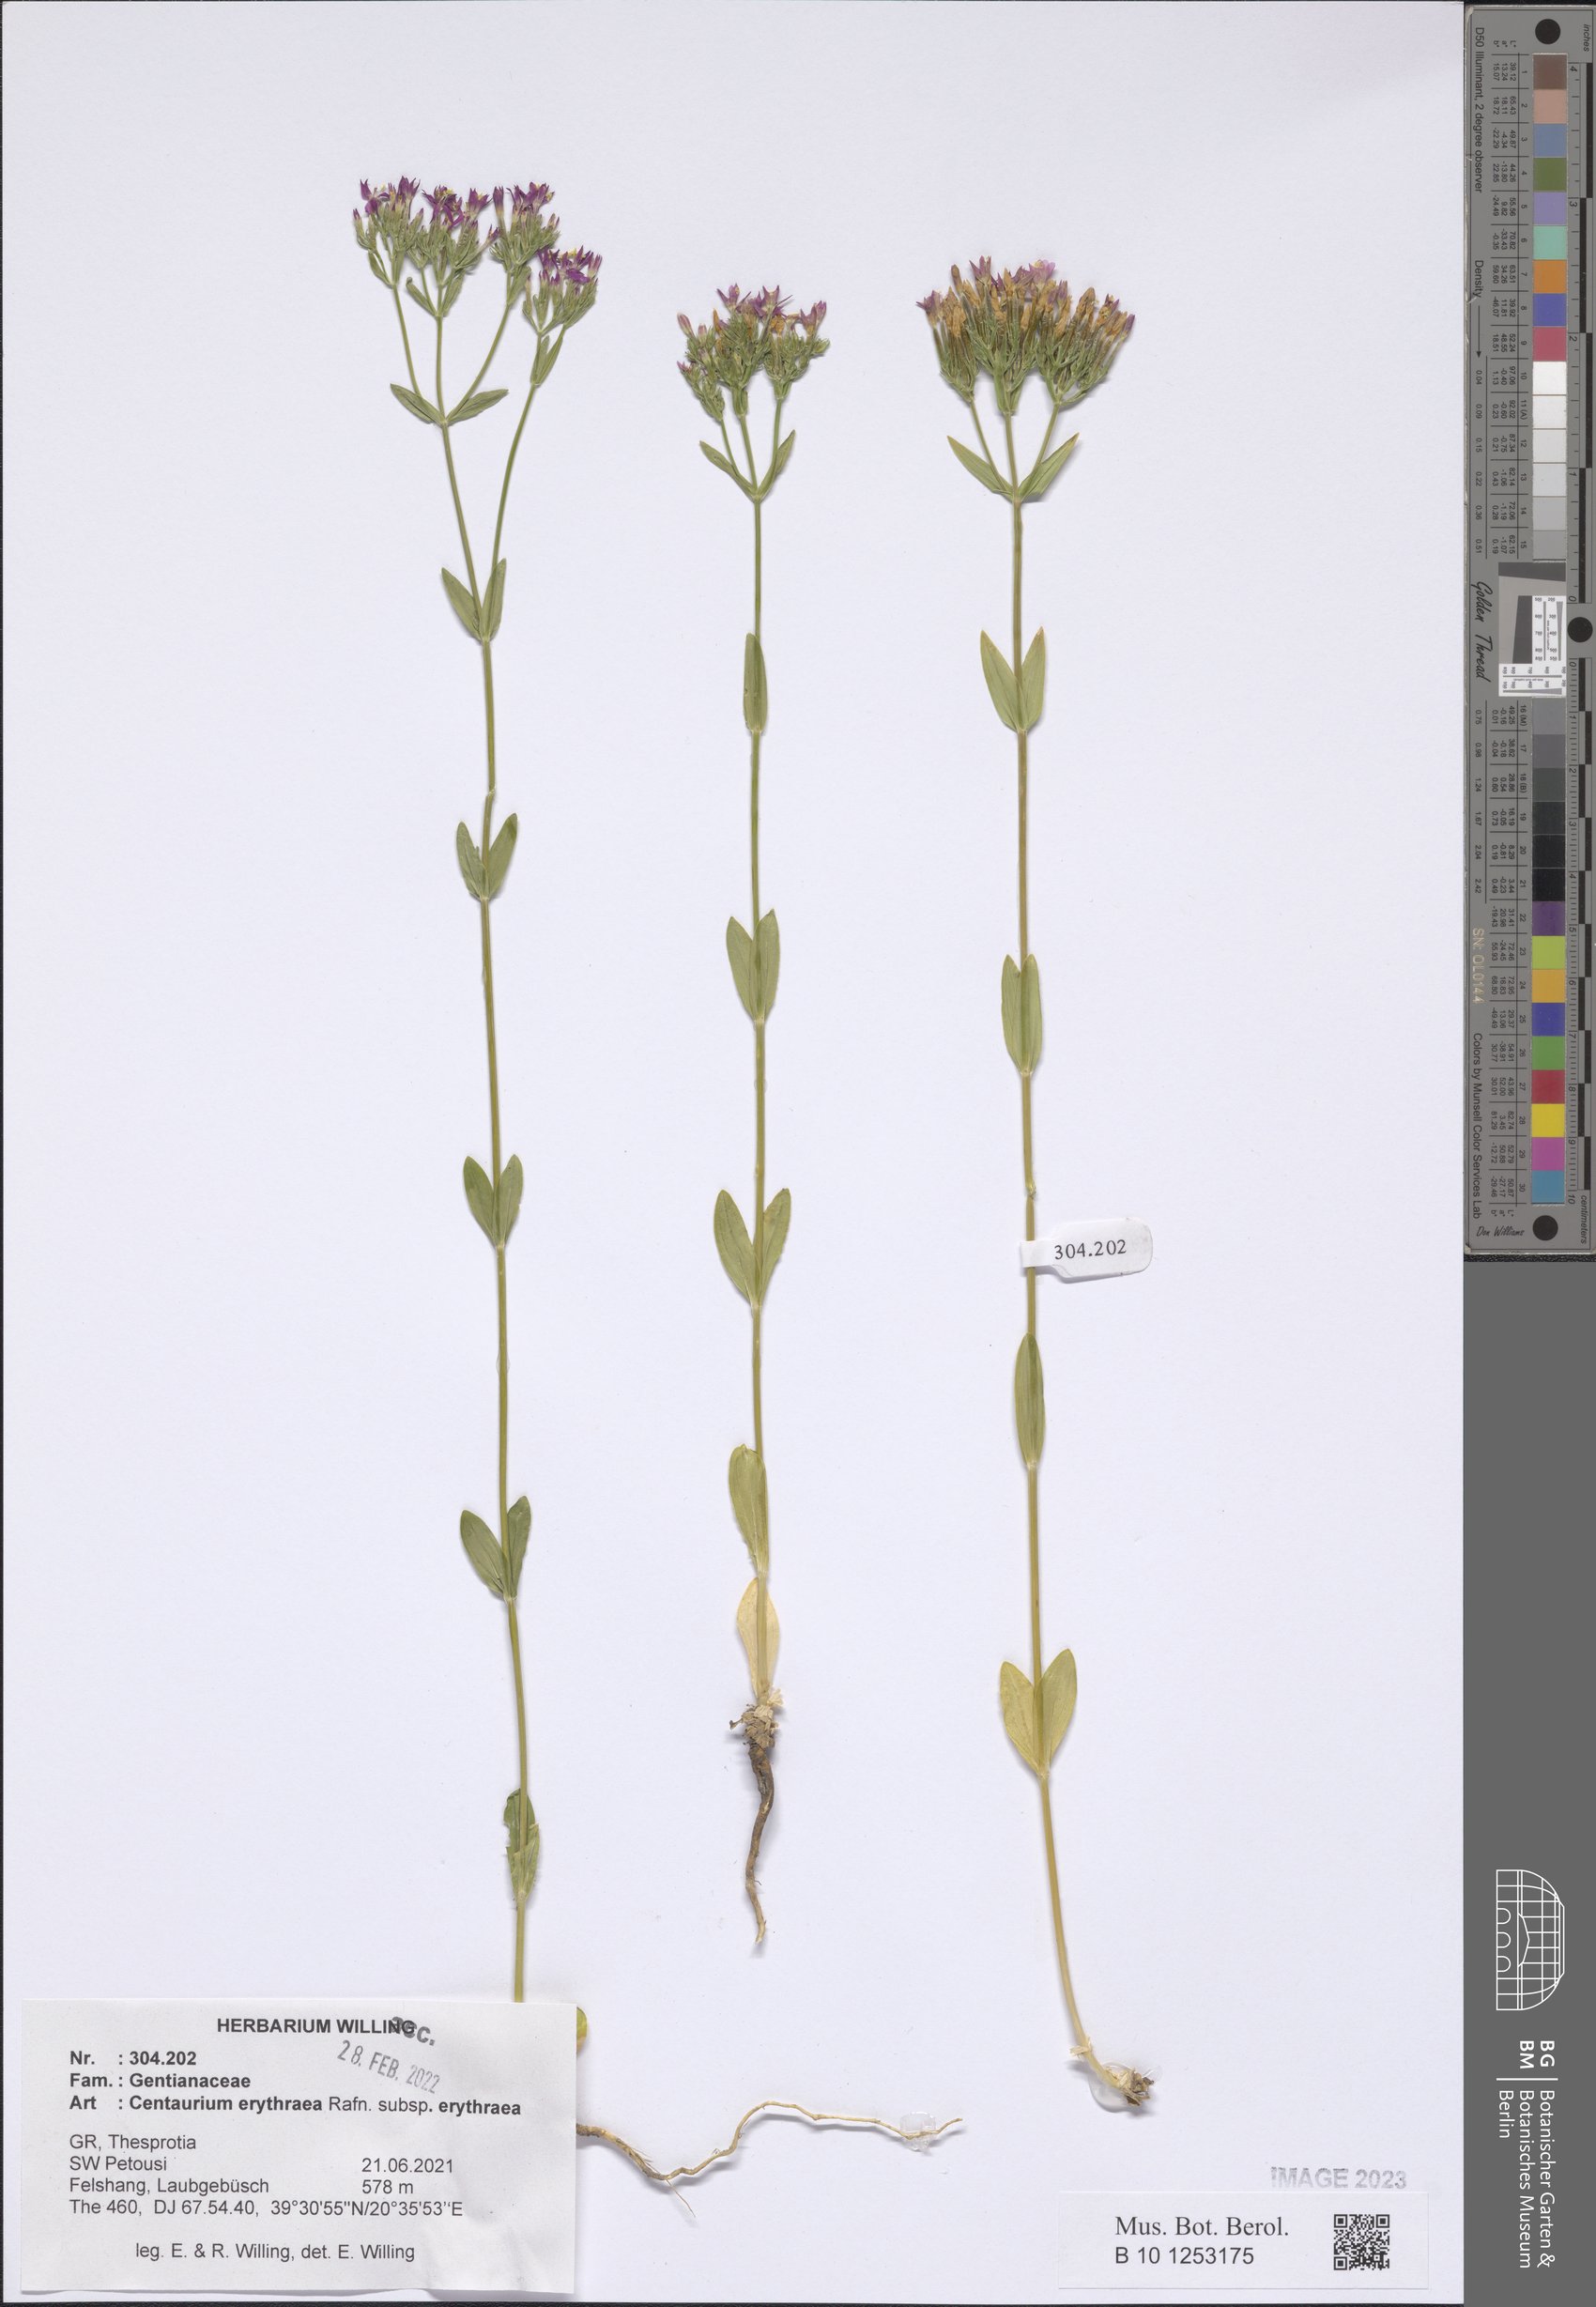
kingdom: Plantae
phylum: Tracheophyta
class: Magnoliopsida
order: Gentianales
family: Gentianaceae
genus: Centaurium
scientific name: Centaurium erythraea
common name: Common centaury
